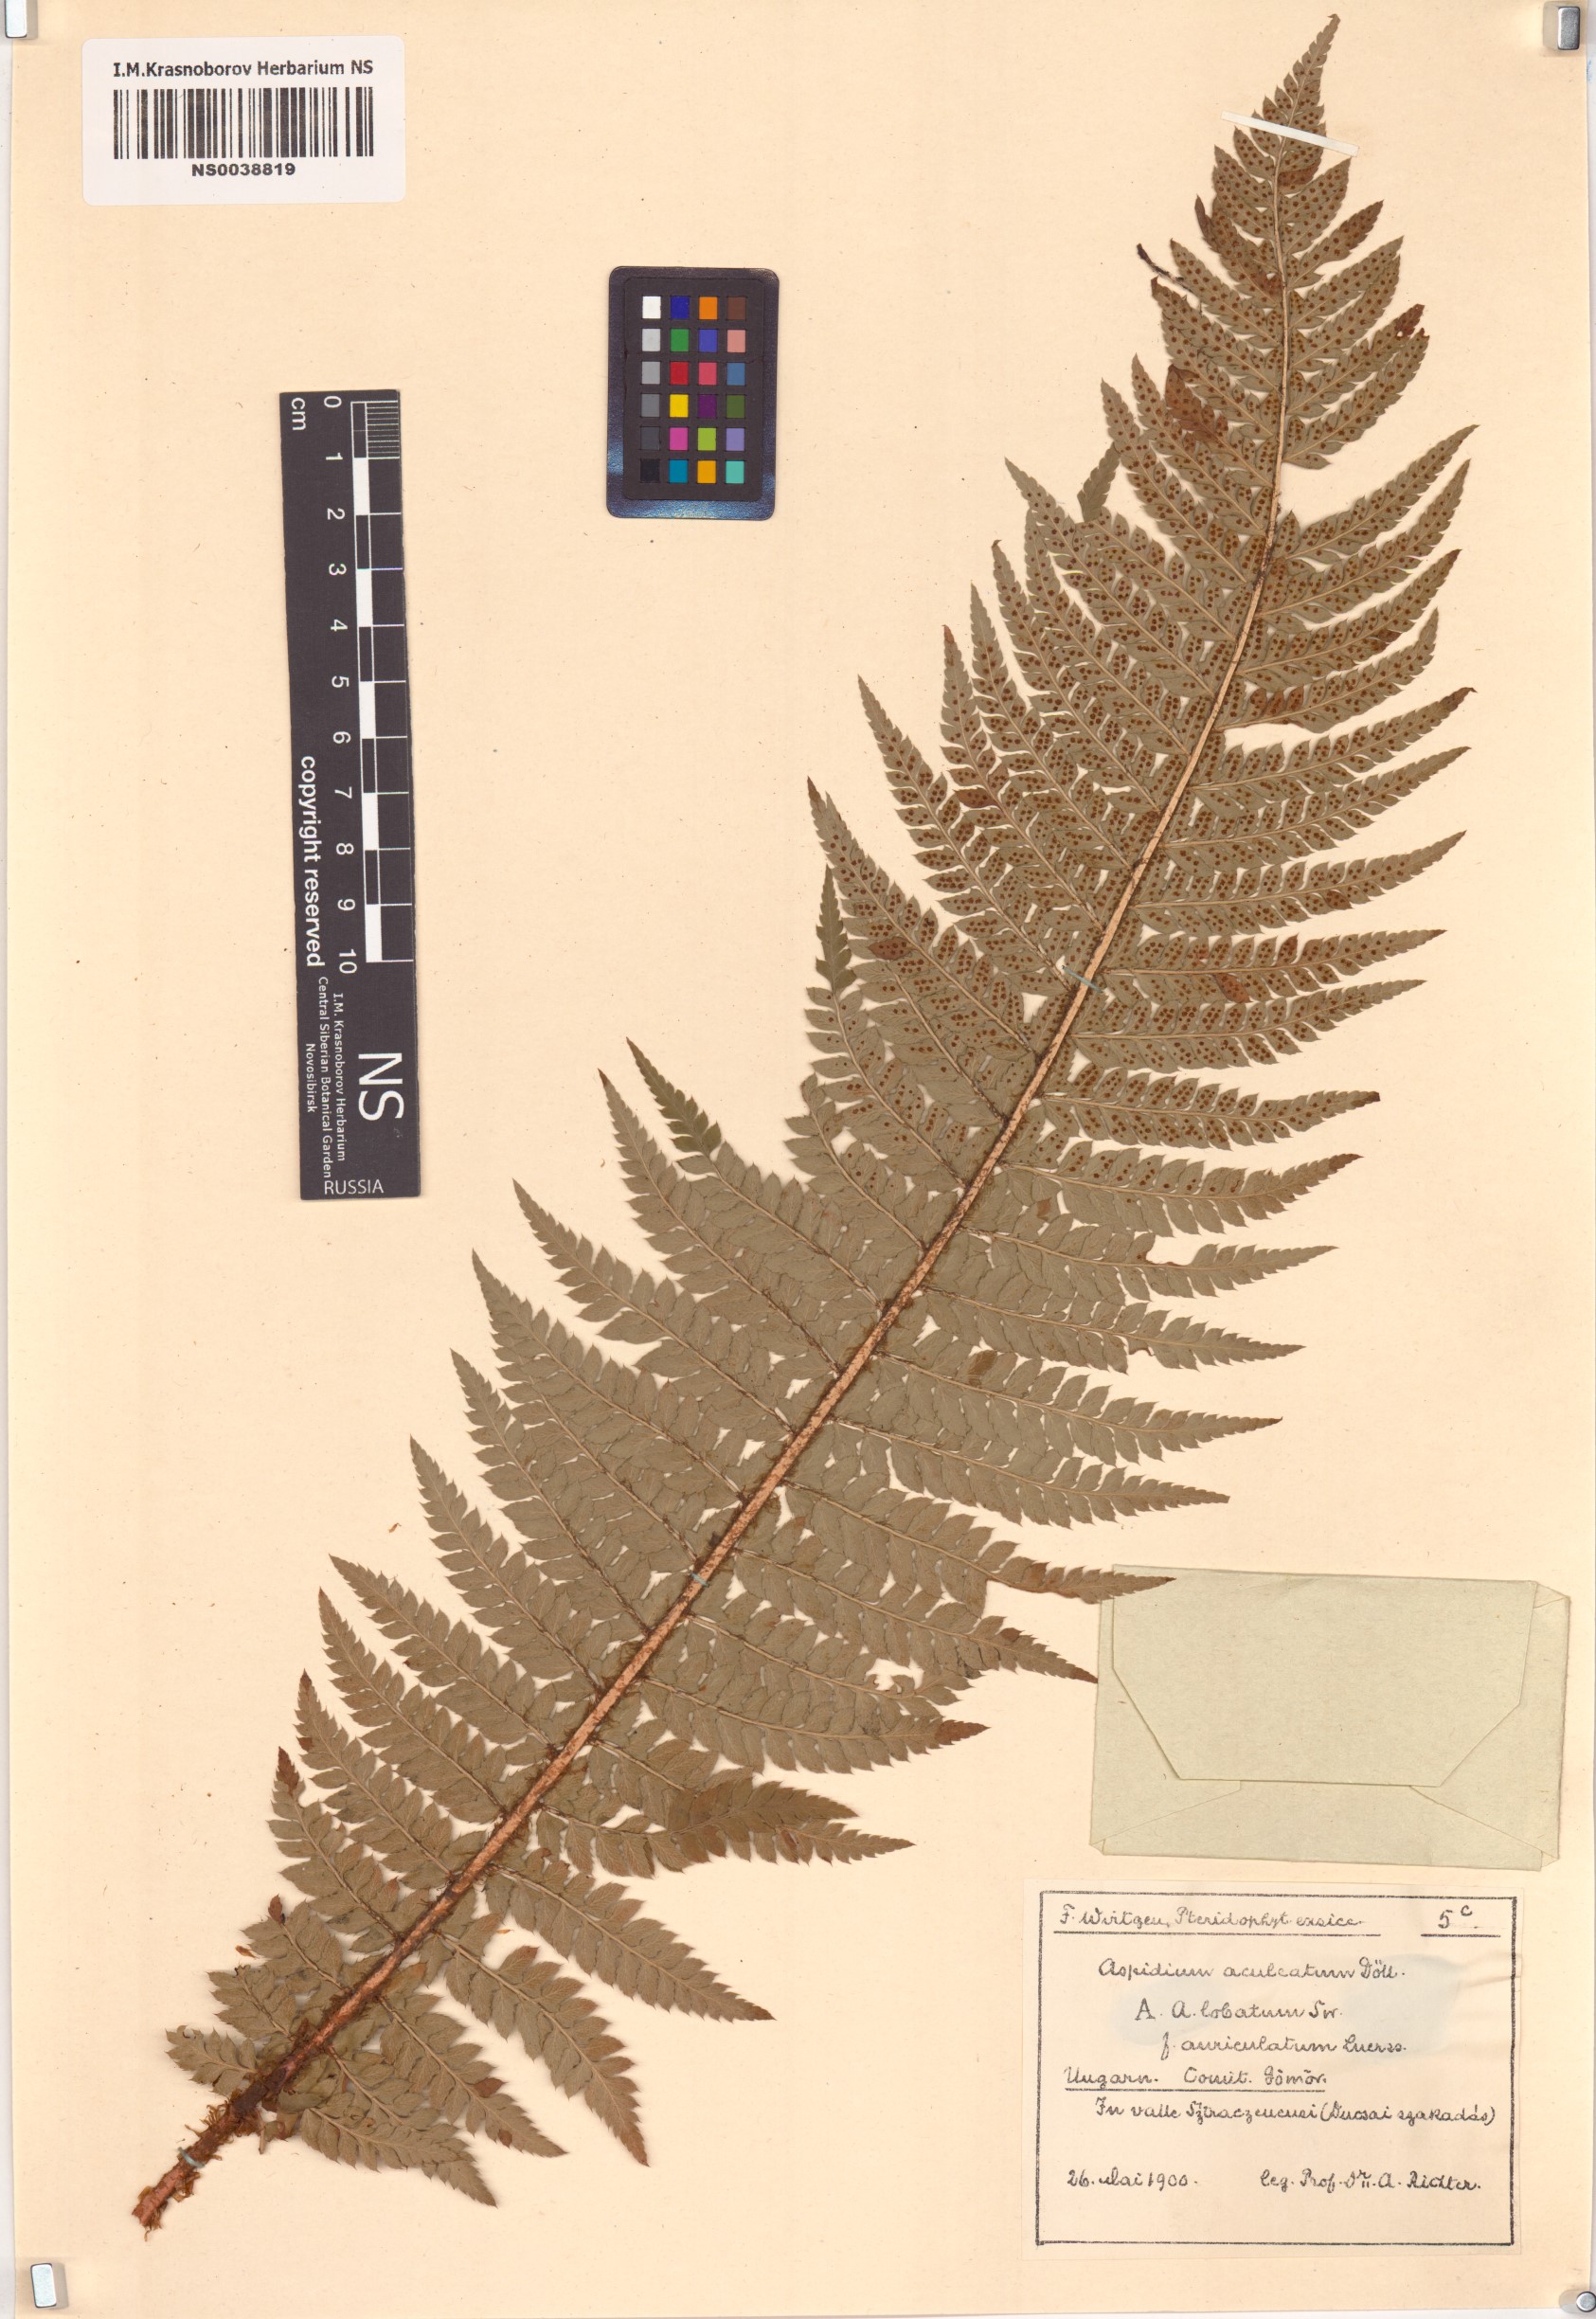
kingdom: Plantae
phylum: Tracheophyta
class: Polypodiopsida
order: Polypodiales
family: Dryopteridaceae
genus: Polystichum
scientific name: Polystichum aculeatum
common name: Hard shield-fern
